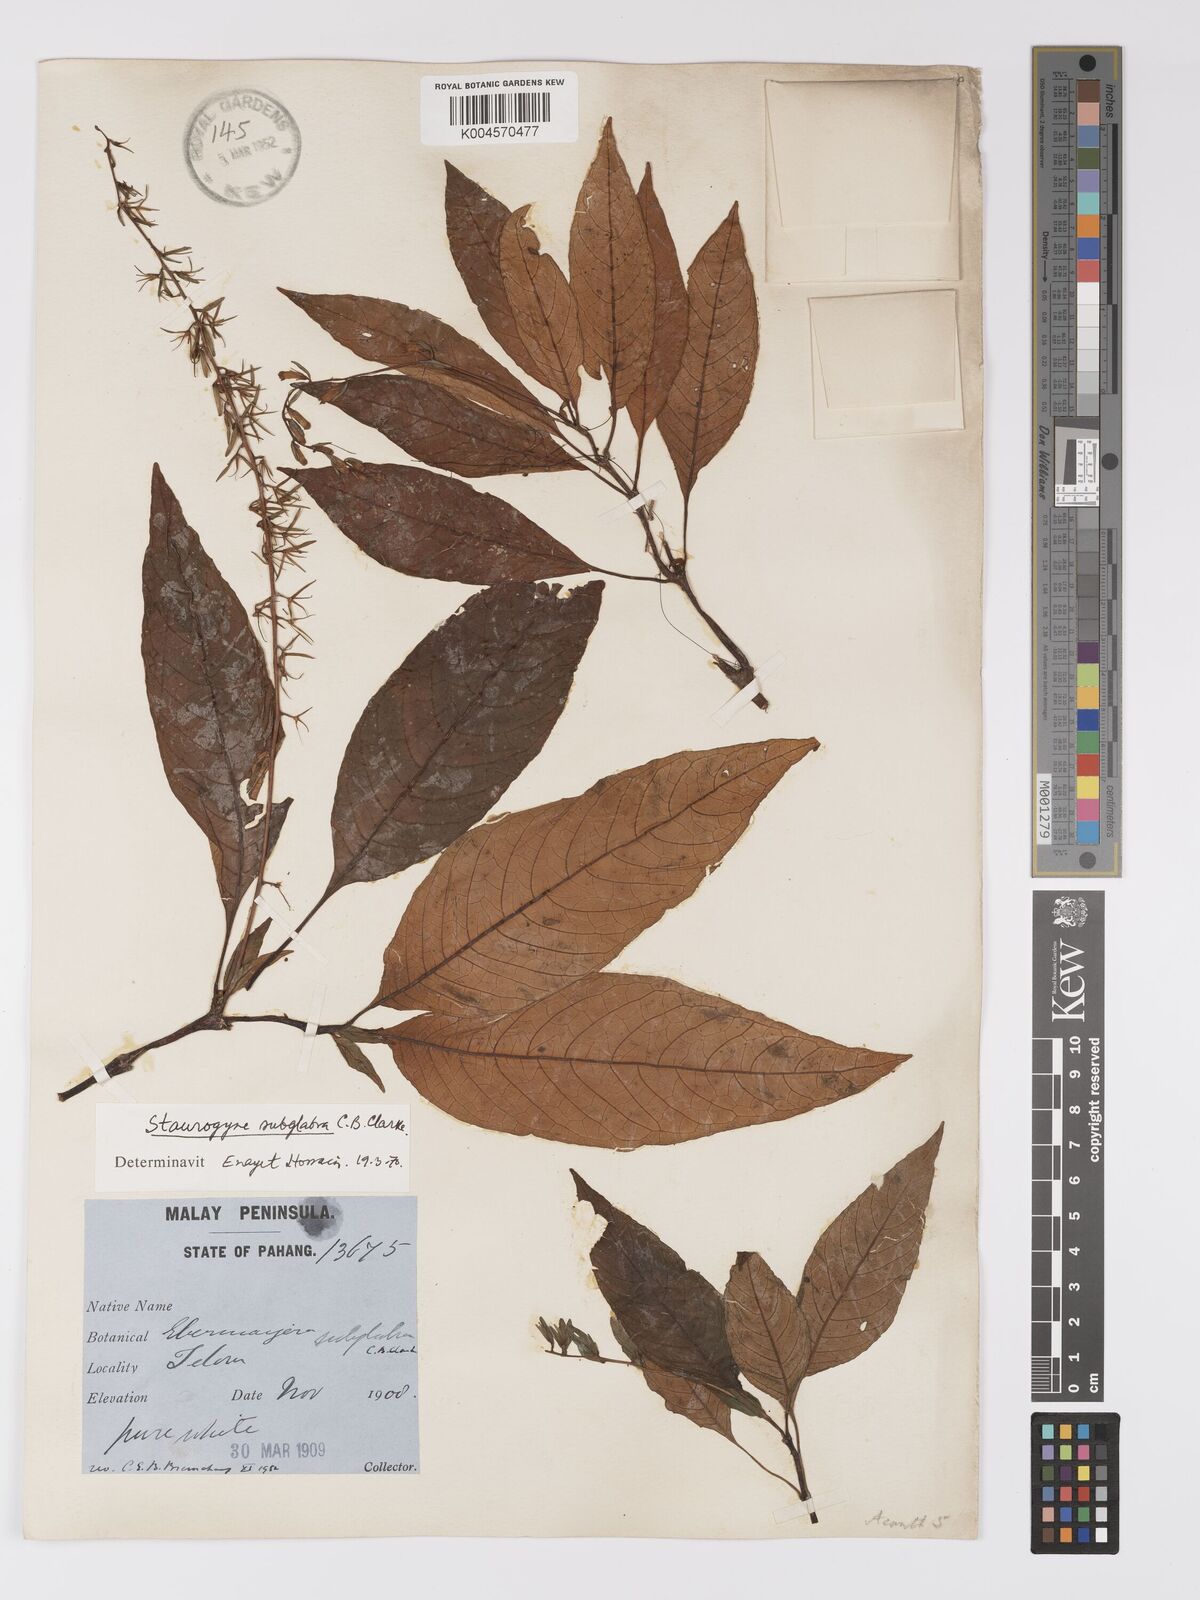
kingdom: Plantae
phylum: Tracheophyta
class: Magnoliopsida
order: Lamiales
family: Acanthaceae
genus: Staurogyne
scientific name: Staurogyne subglabra
